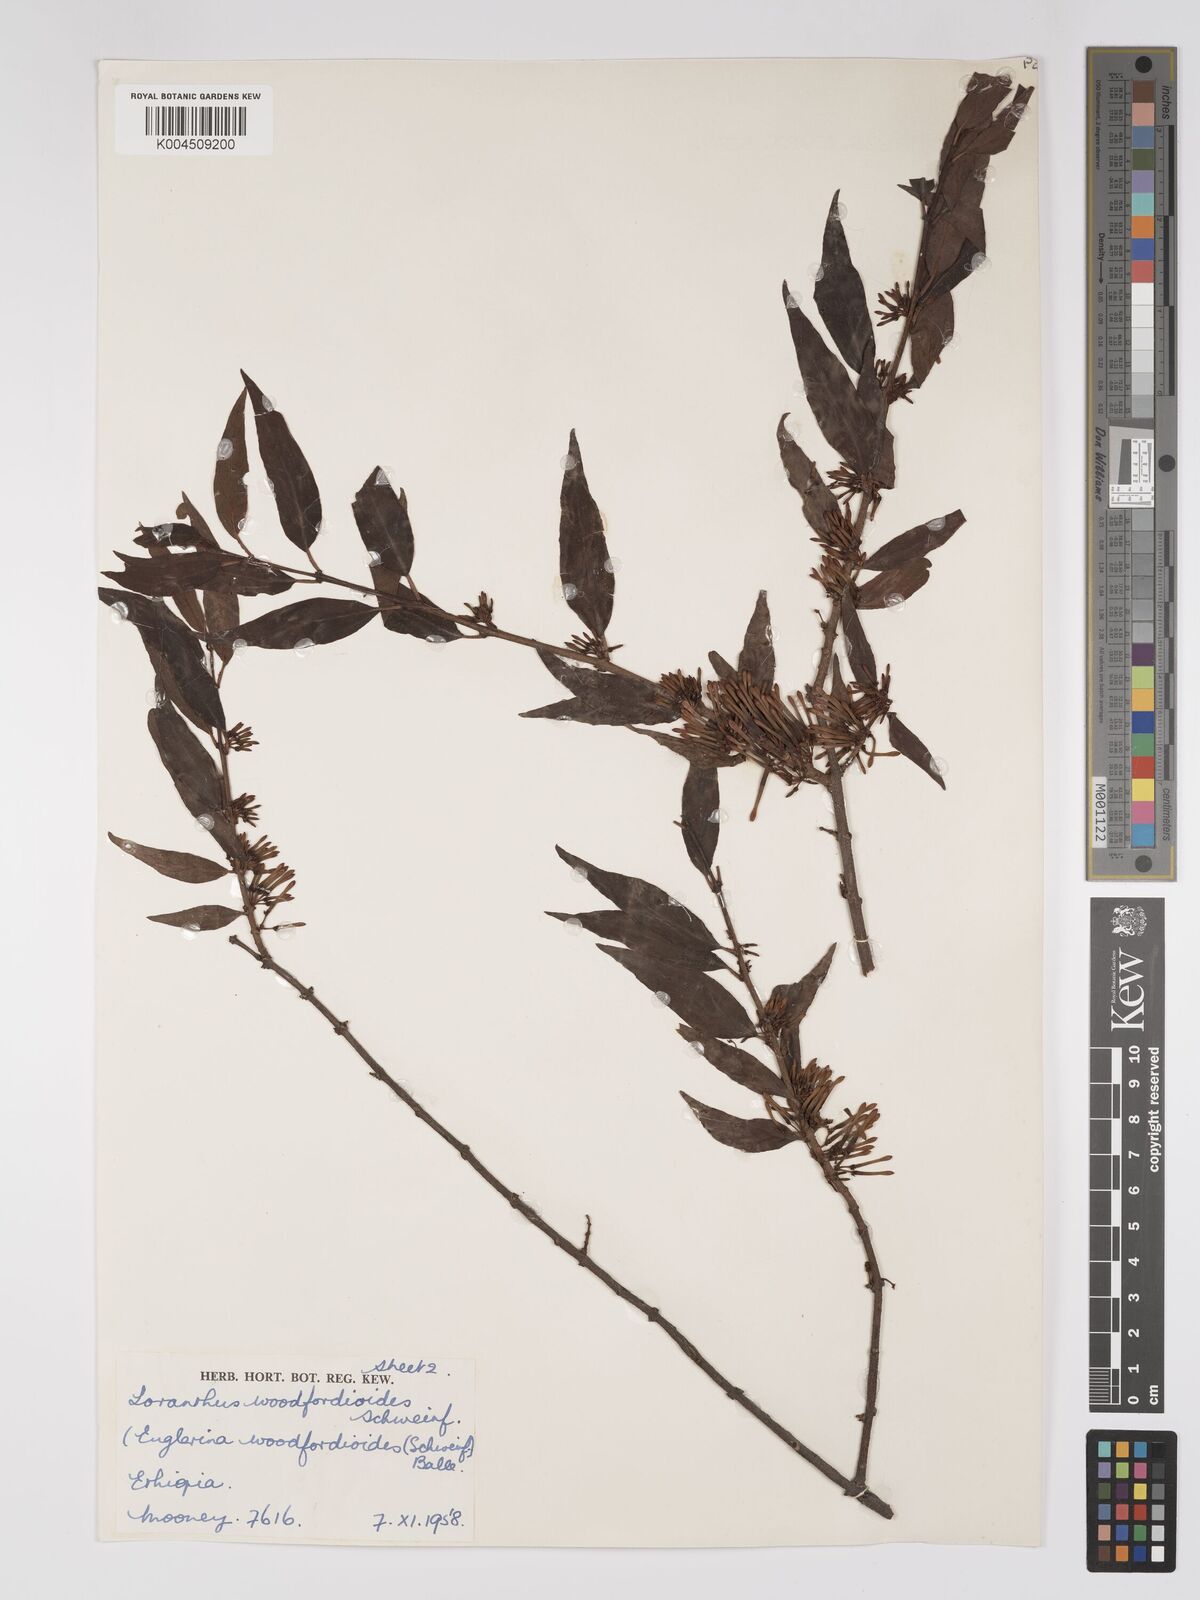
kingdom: Plantae
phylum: Tracheophyta
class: Magnoliopsida
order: Santalales
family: Loranthaceae
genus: Englerina
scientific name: Englerina woodfordioides
